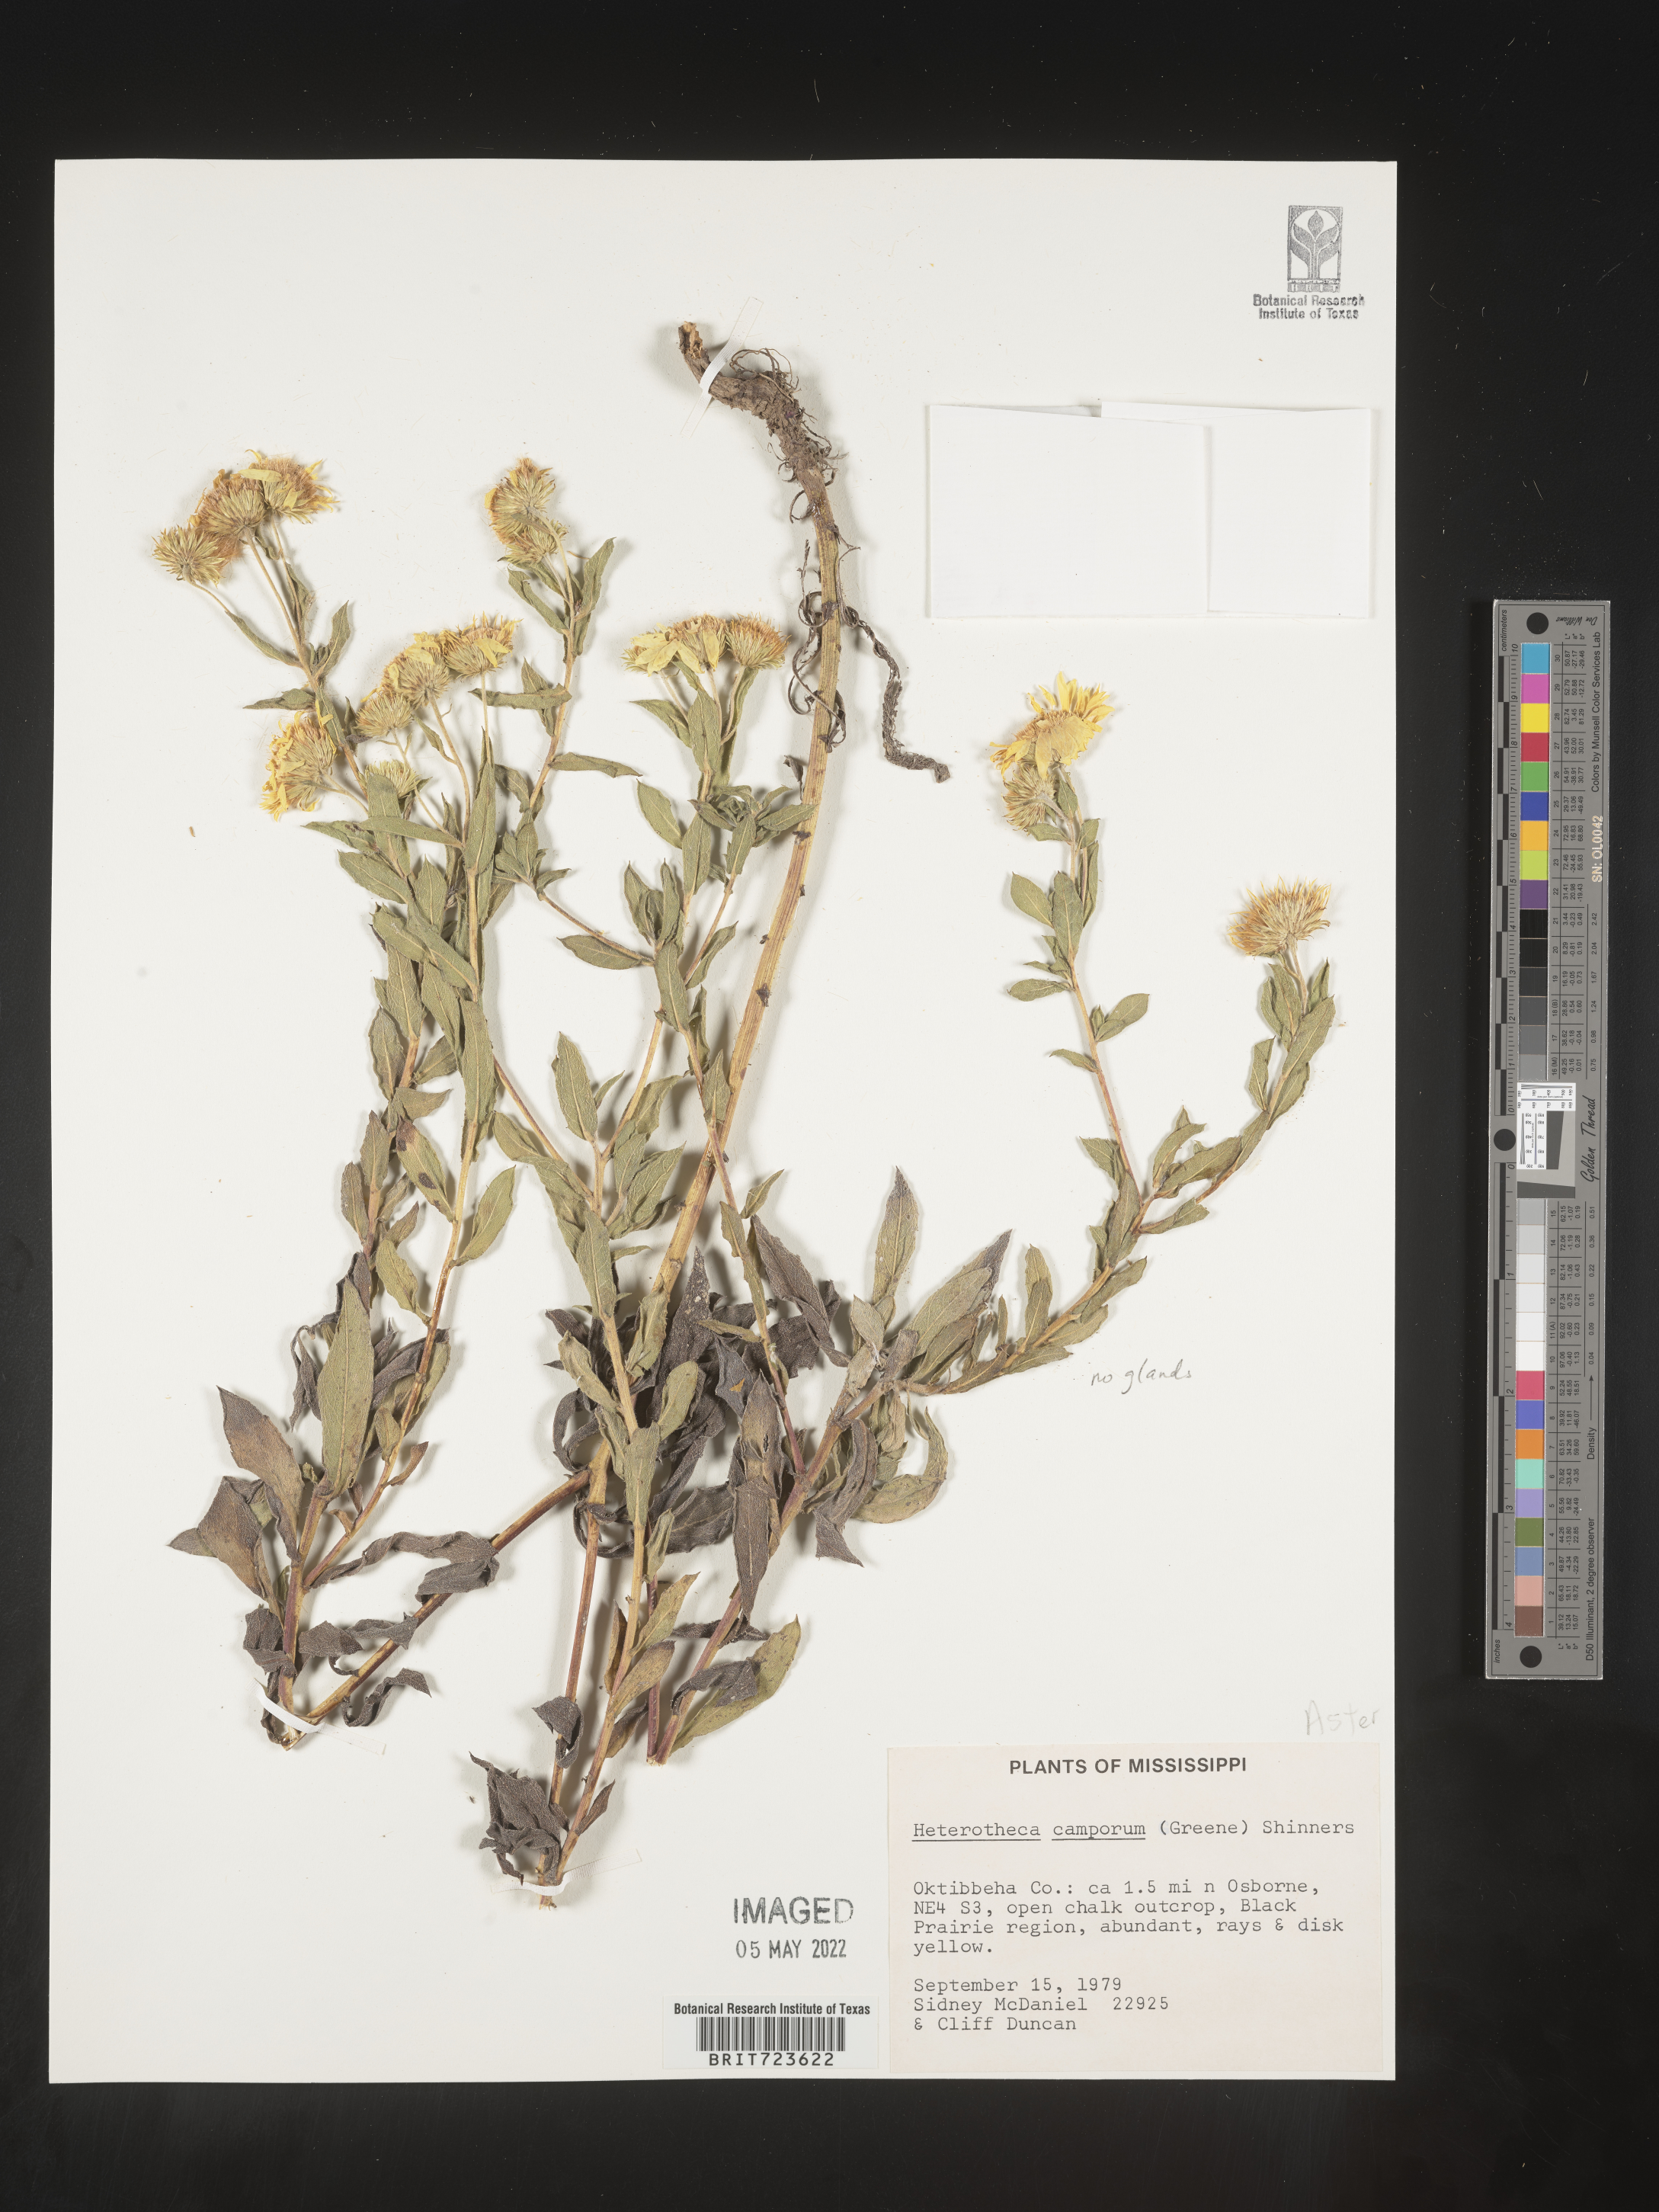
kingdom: Plantae
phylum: Tracheophyta
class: Magnoliopsida
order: Asterales
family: Asteraceae
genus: Heterotheca
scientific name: Heterotheca camporum
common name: Prairie golden-aster
